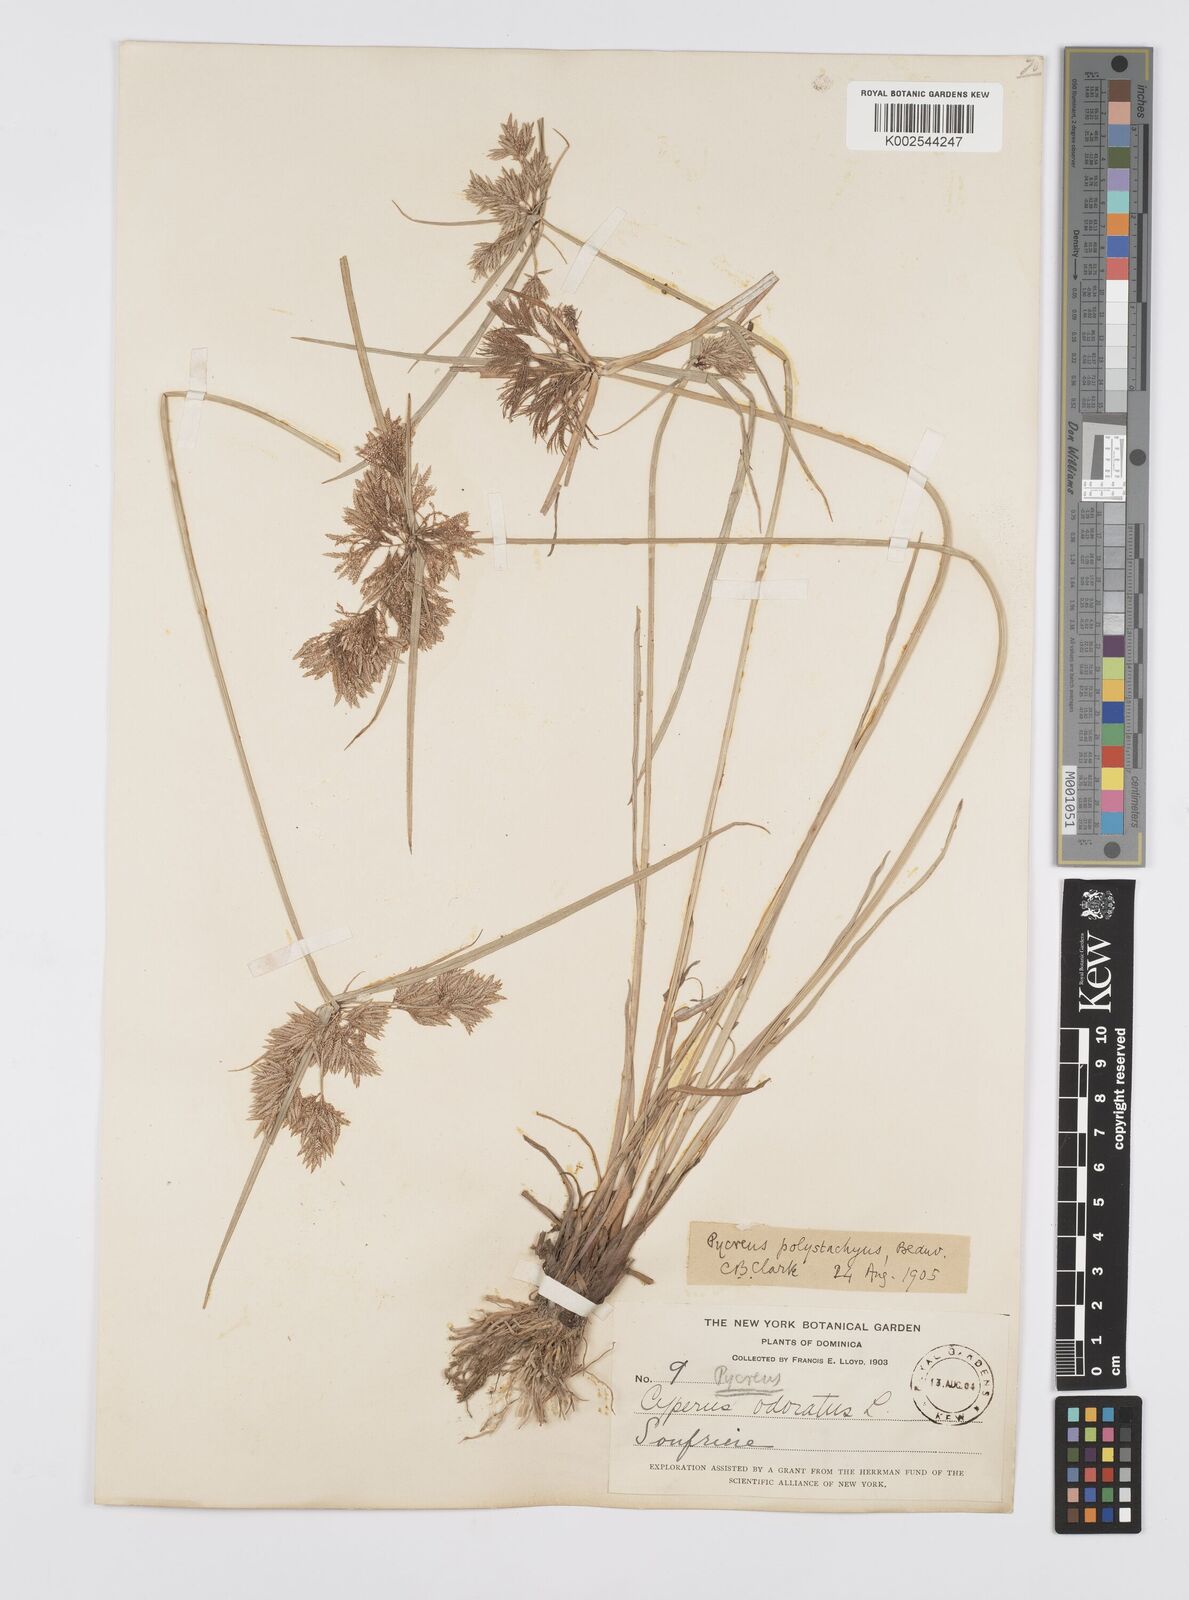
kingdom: Plantae
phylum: Tracheophyta
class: Liliopsida
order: Poales
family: Cyperaceae
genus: Cyperus
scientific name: Cyperus polystachyos
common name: Bunchy flat sedge
